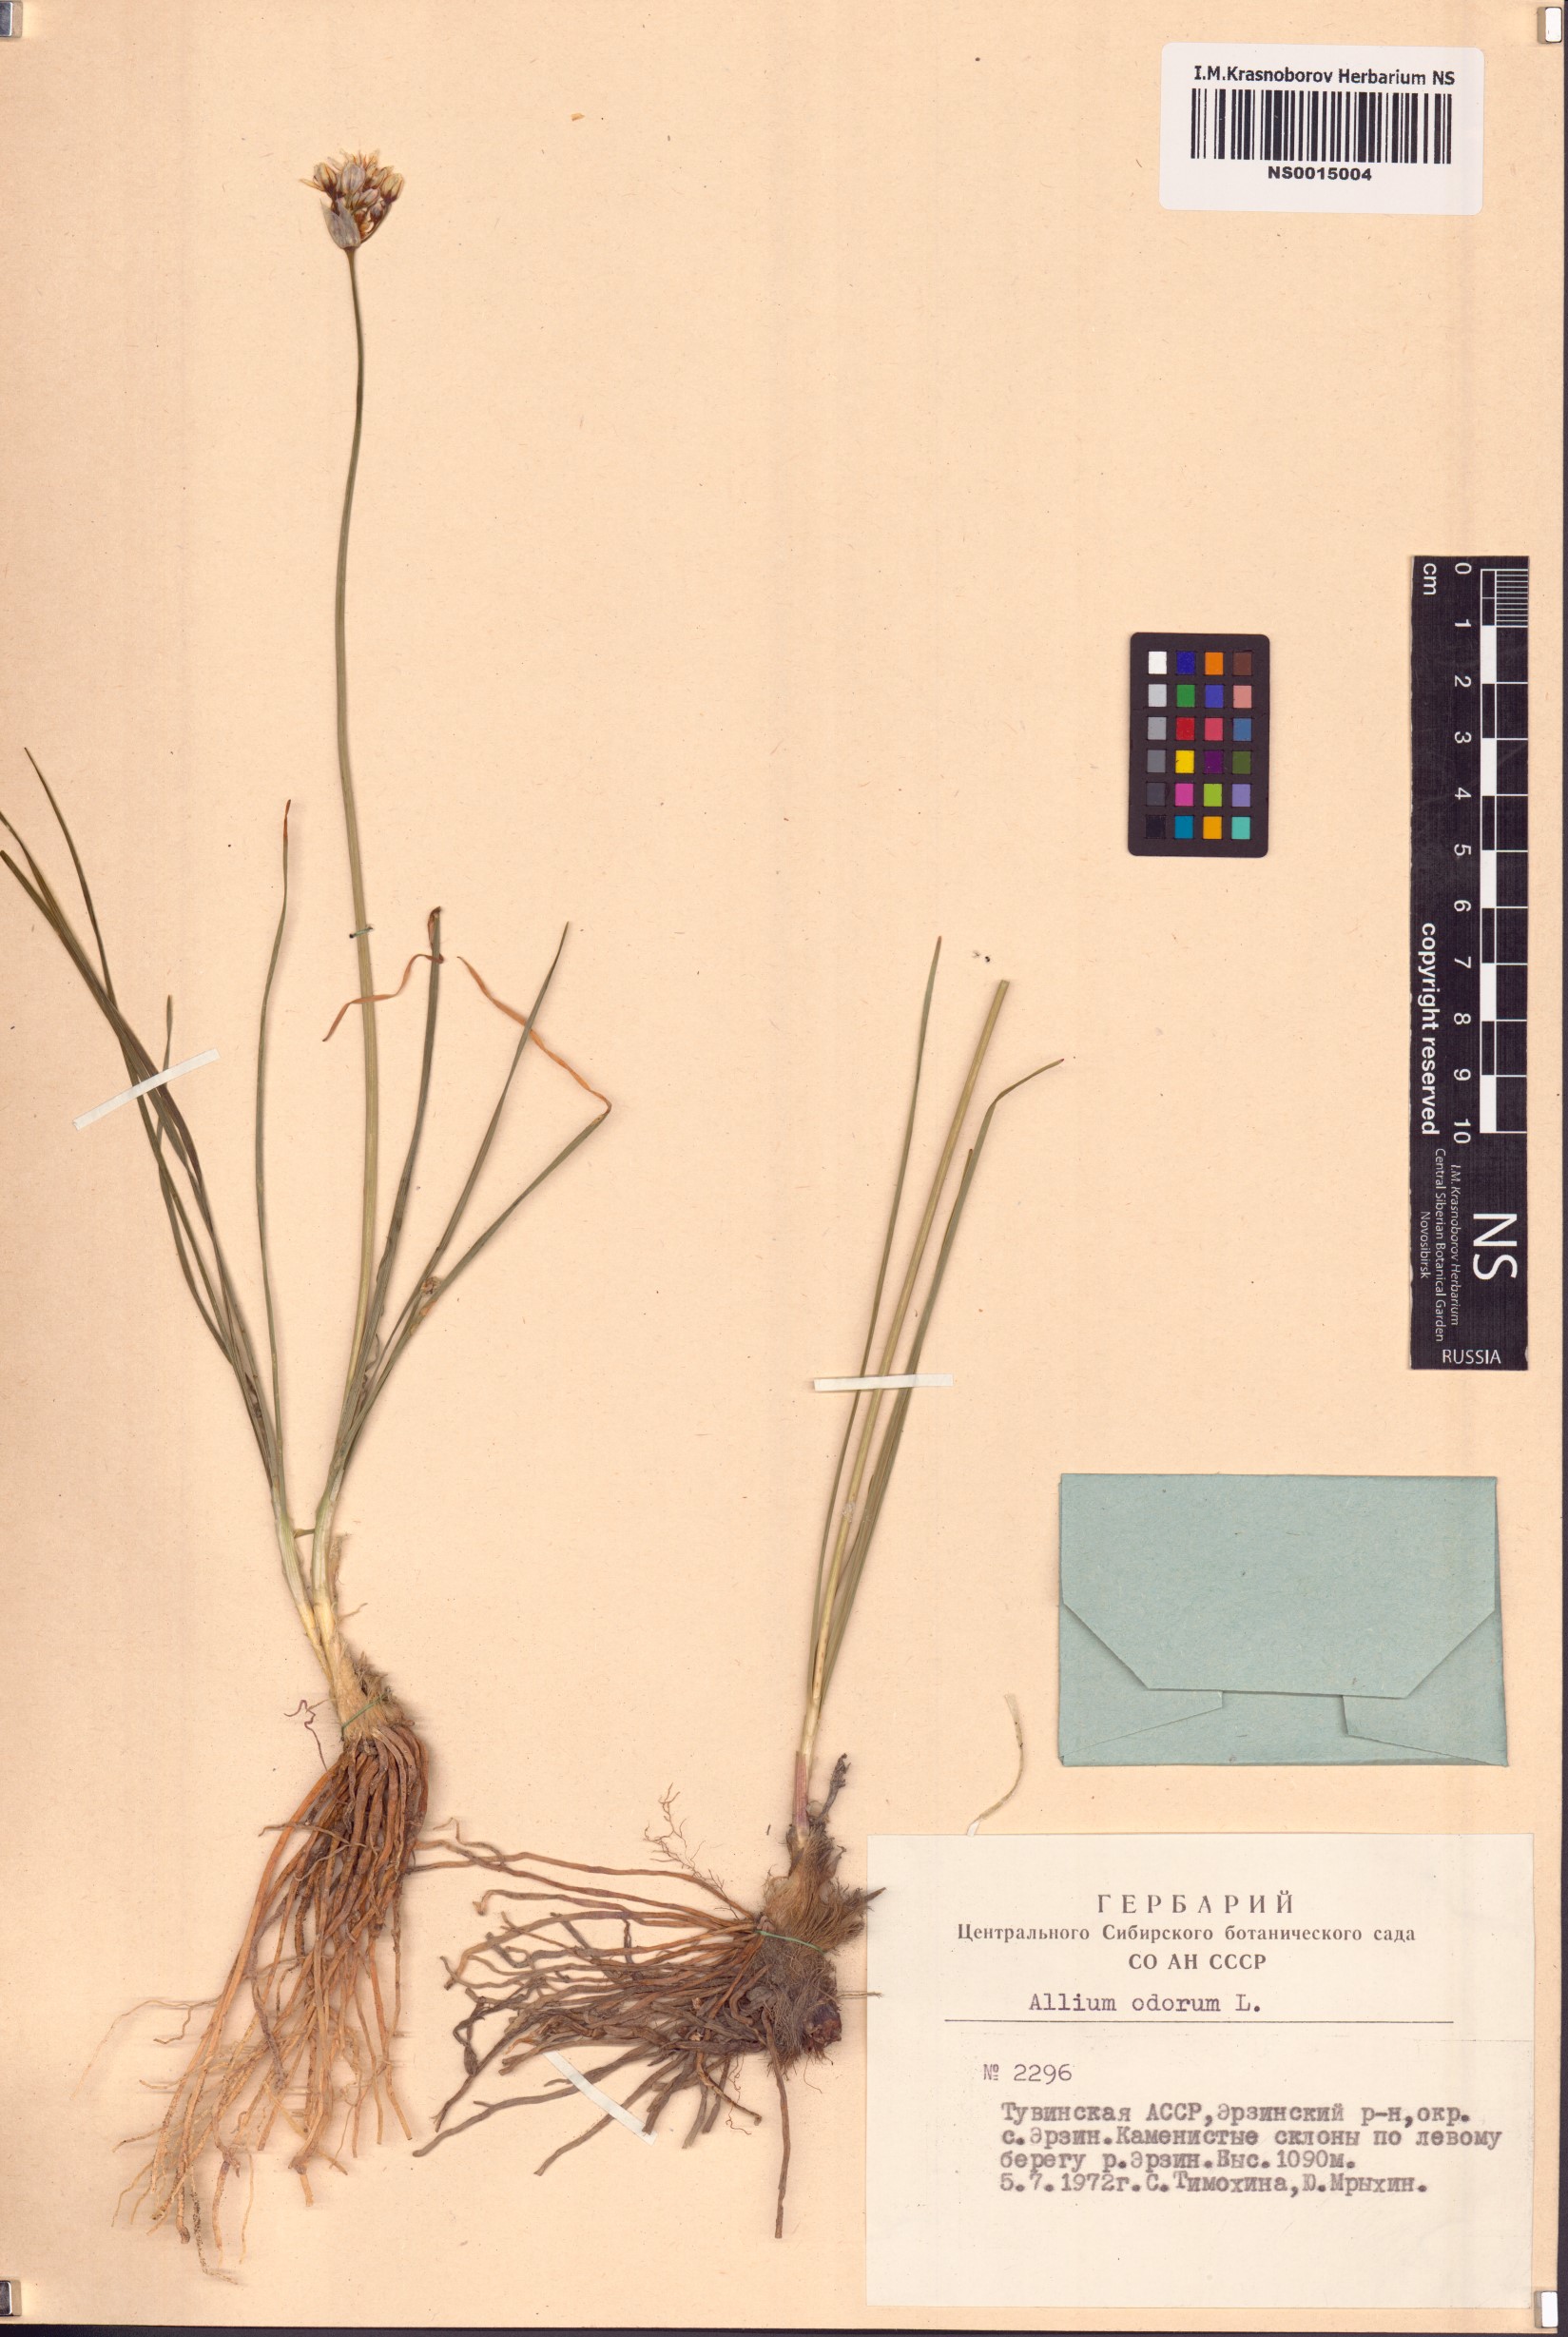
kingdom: Plantae
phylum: Tracheophyta
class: Liliopsida
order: Asparagales
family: Amaryllidaceae
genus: Allium
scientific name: Allium ramosum
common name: Fragrant garlic
